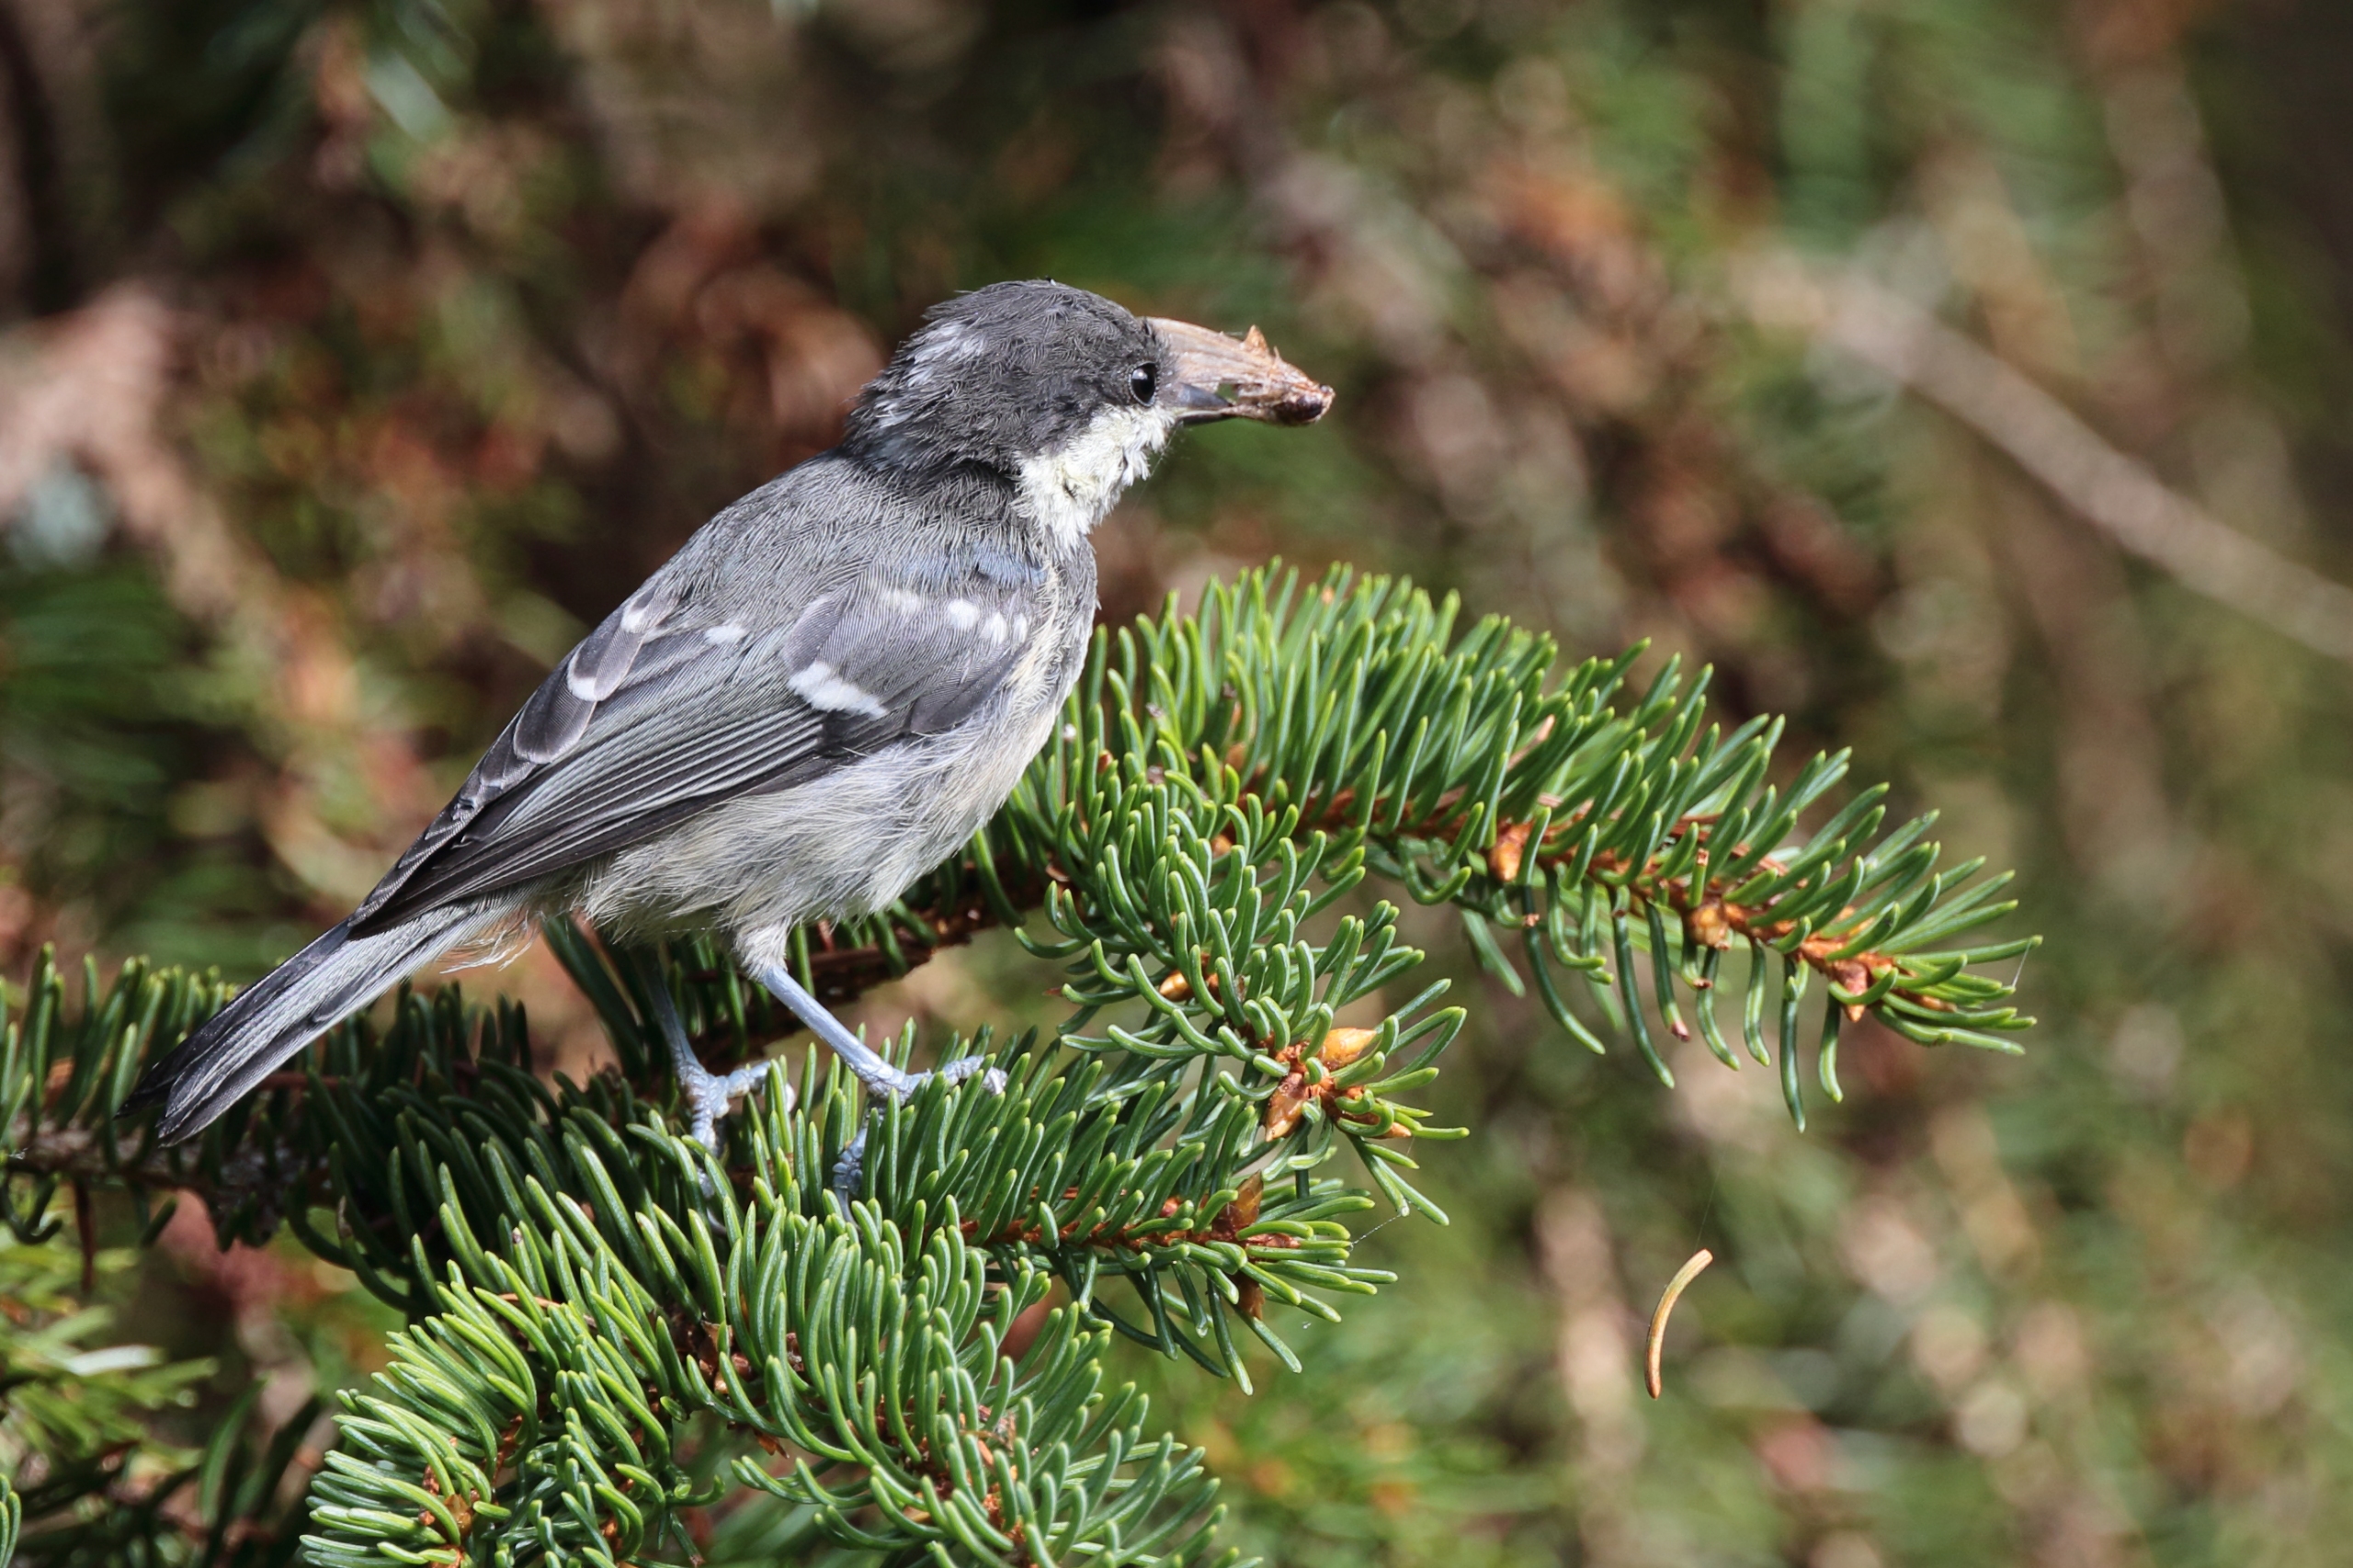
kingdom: Animalia
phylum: Chordata
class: Aves
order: Passeriformes
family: Paridae
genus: Periparus
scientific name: Periparus ater
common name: Sortmejse
